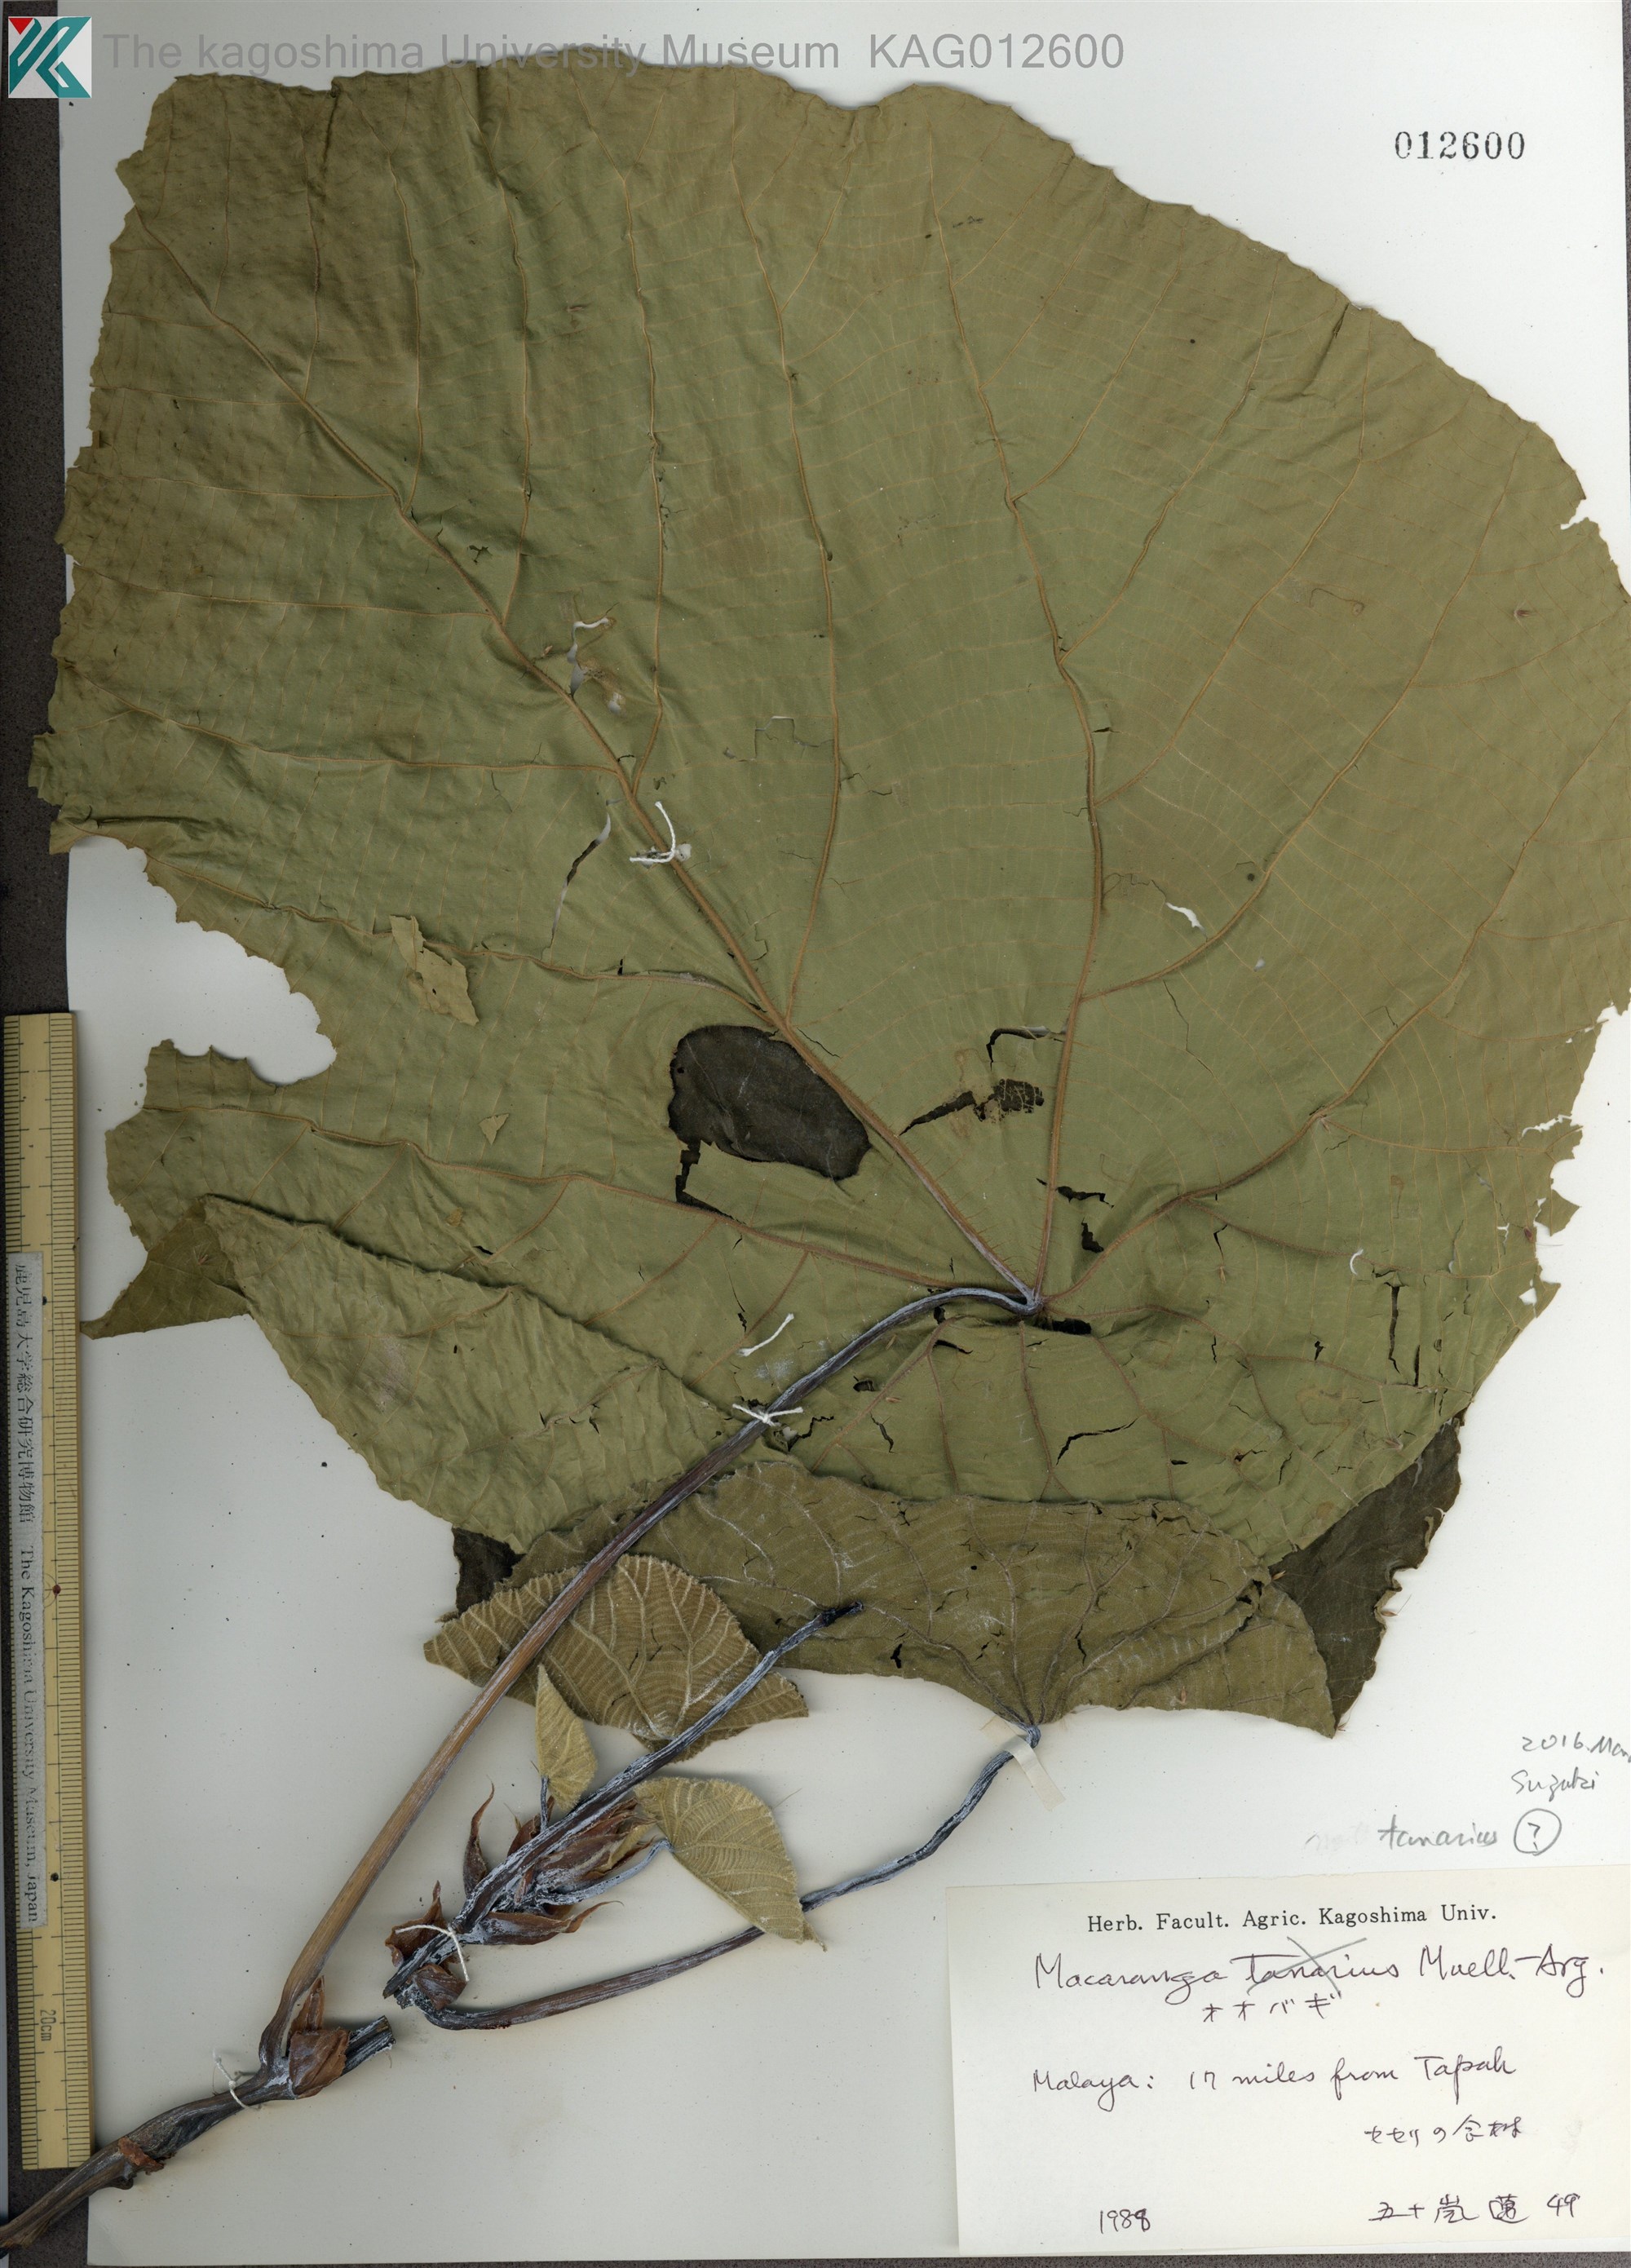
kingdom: Plantae
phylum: Tracheophyta
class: Magnoliopsida
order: Malpighiales
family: Euphorbiaceae
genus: Macaranga
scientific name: Macaranga
